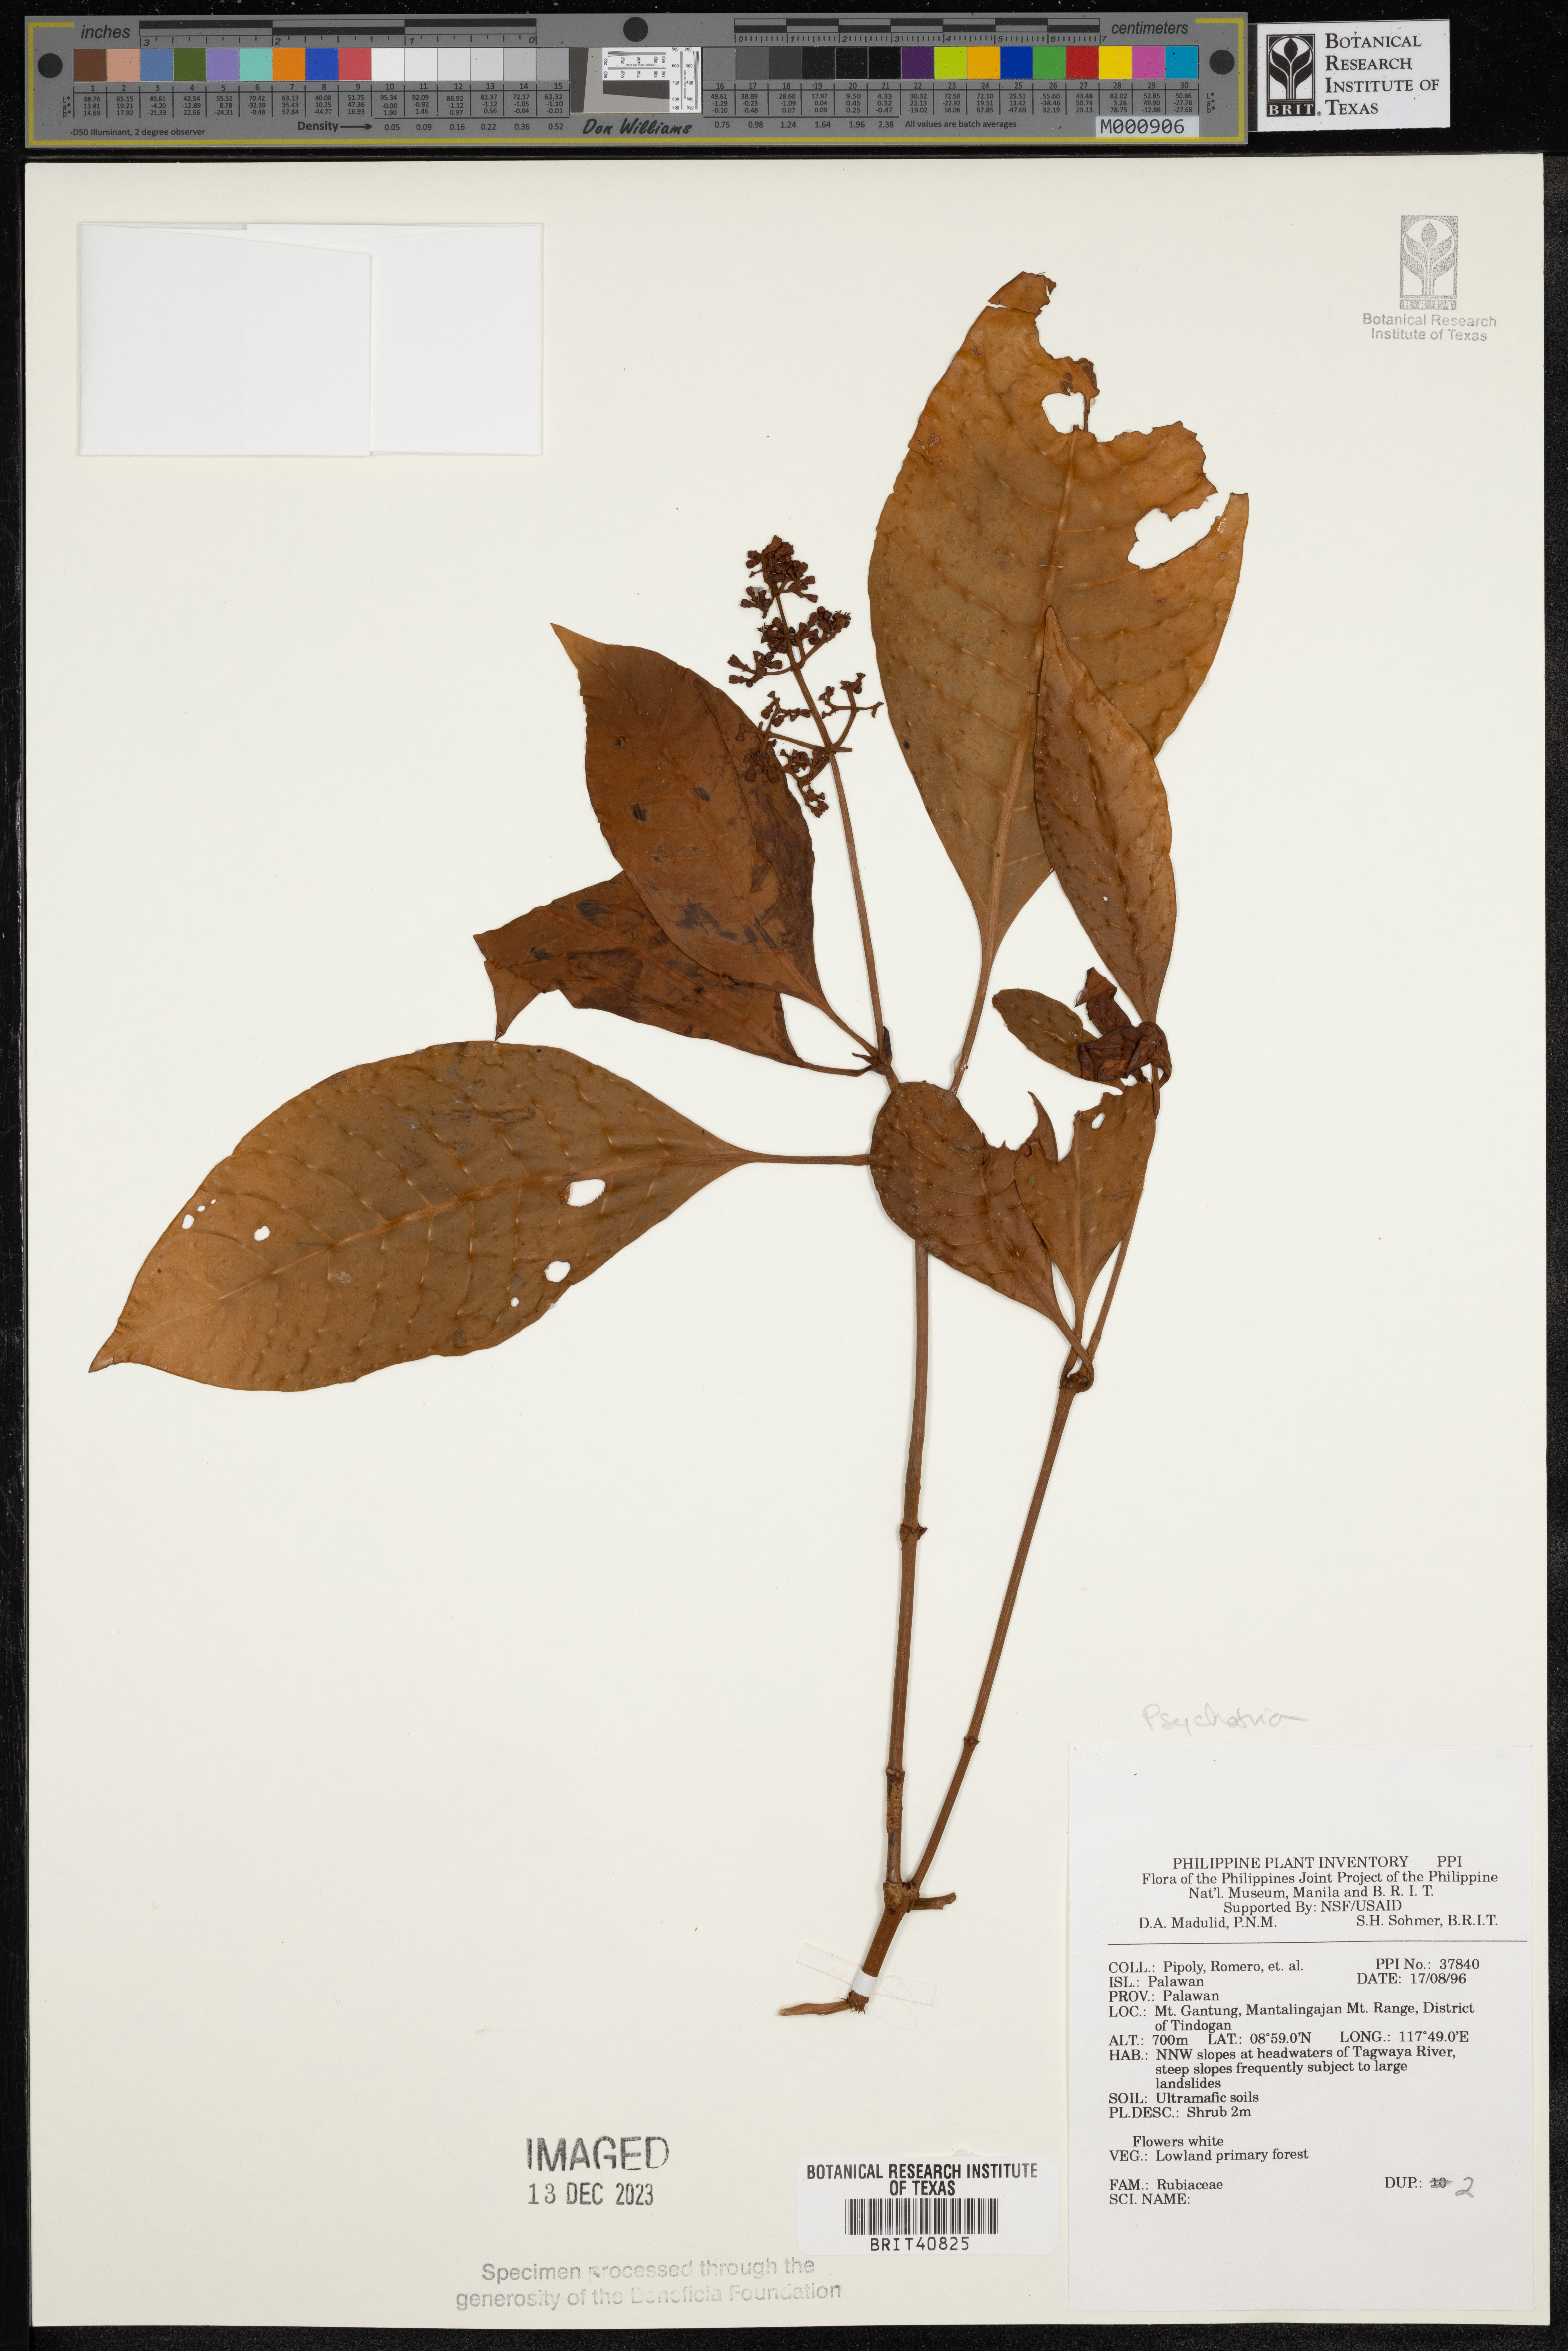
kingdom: Plantae
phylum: Tracheophyta
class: Magnoliopsida
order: Gentianales
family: Rubiaceae
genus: Psychotria
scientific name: Psychotria
